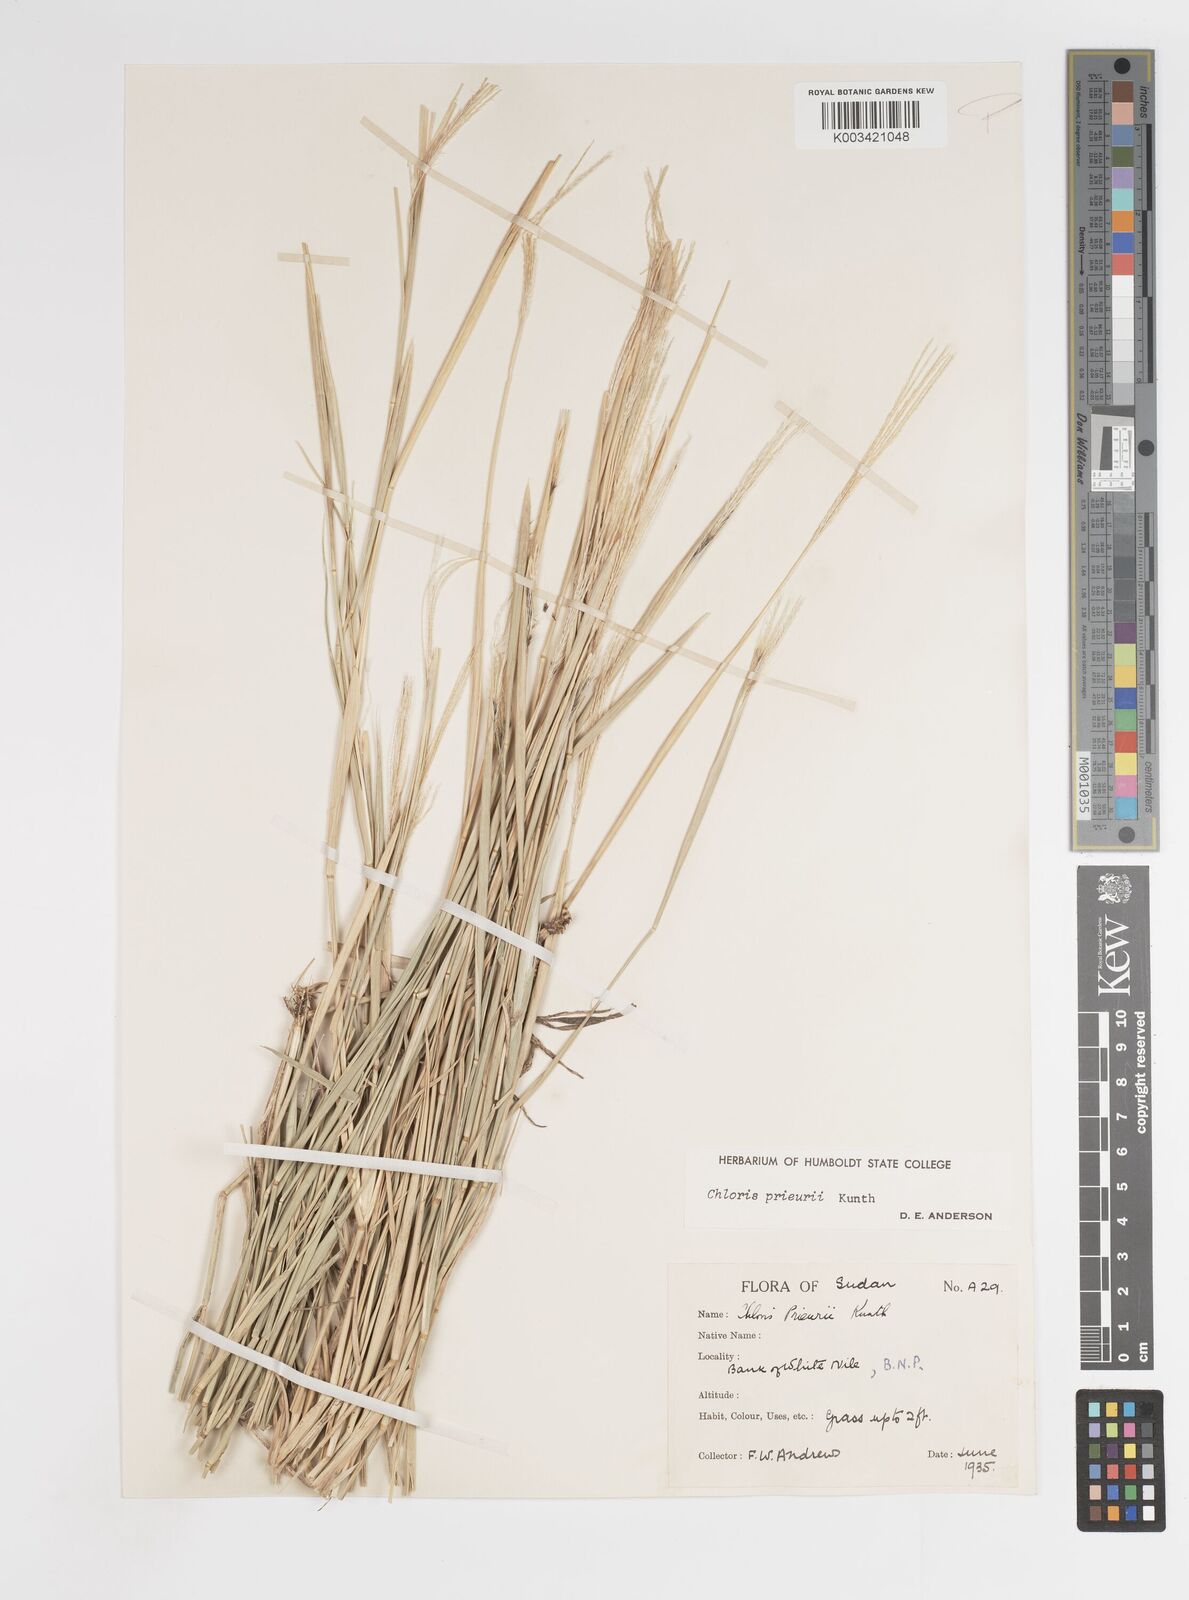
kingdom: Plantae
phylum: Tracheophyta
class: Liliopsida
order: Poales
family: Poaceae
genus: Enteropogon
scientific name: Enteropogon prieurii
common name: Prieur's umbrellagrass
